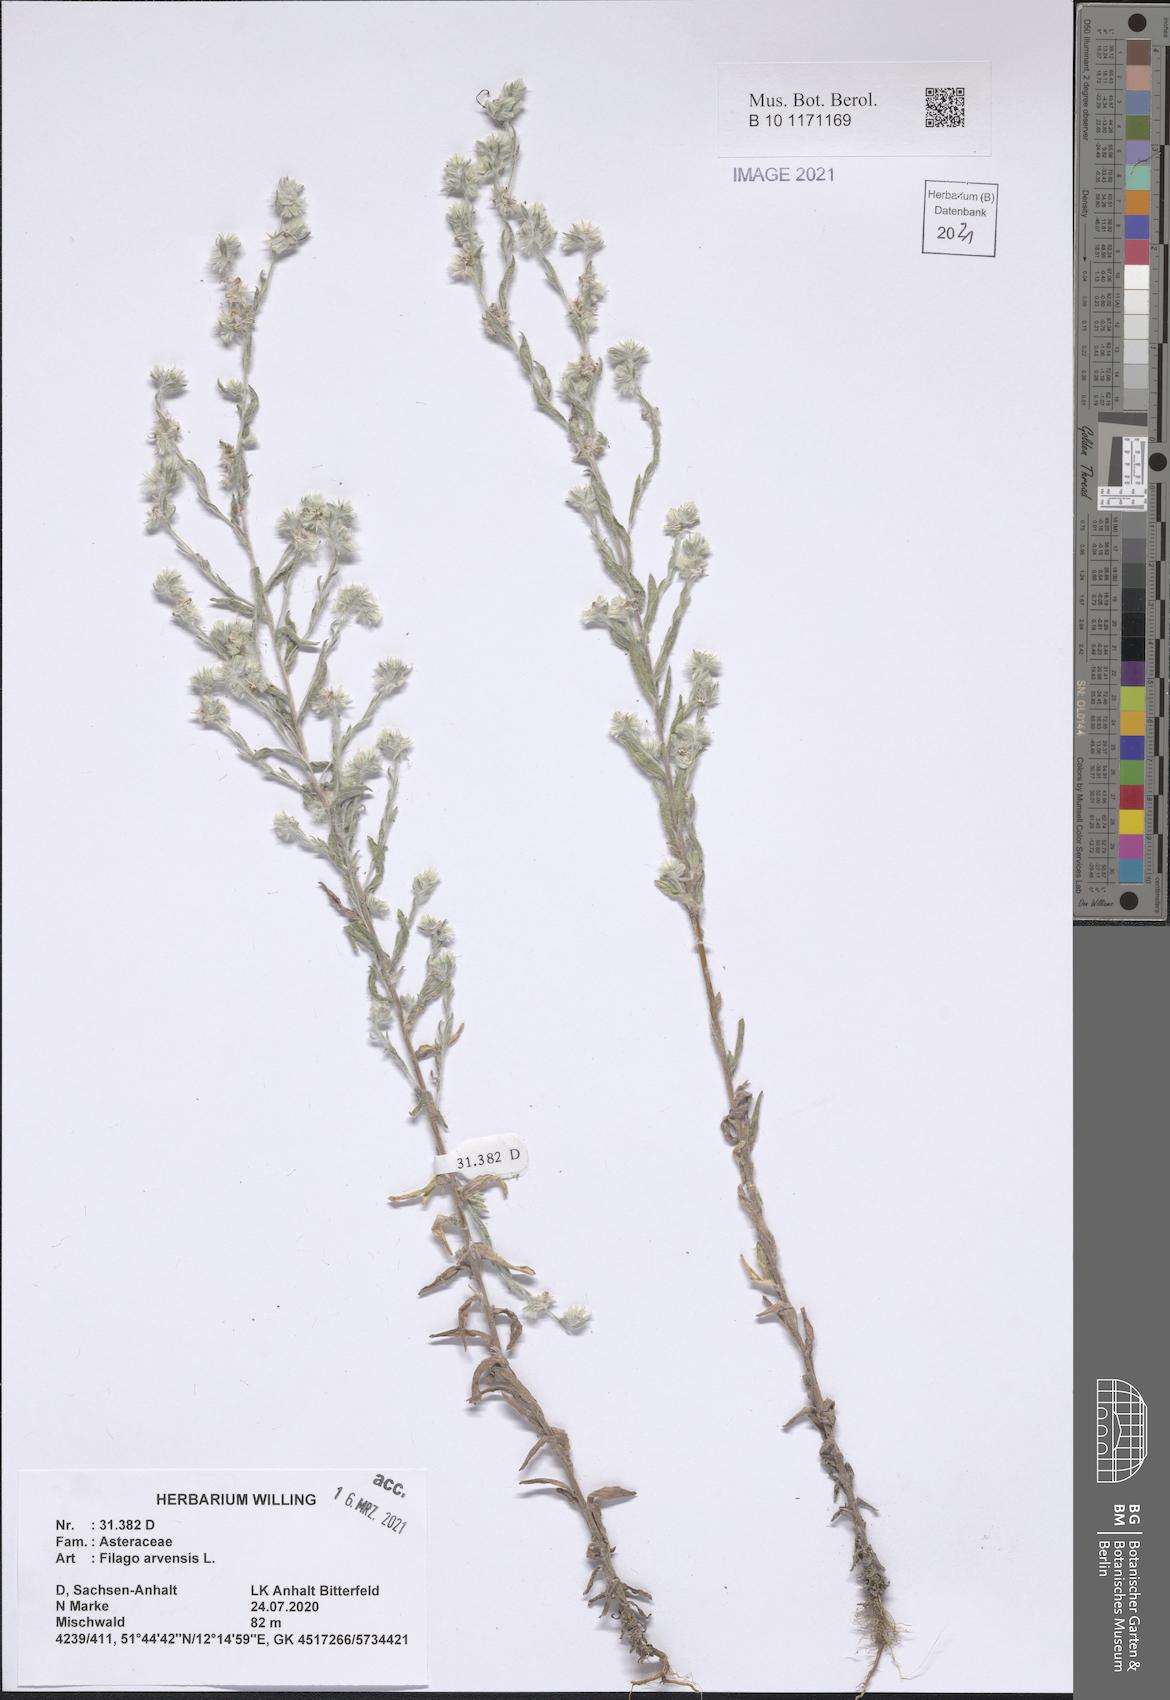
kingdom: Plantae
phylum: Tracheophyta
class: Magnoliopsida
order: Asterales
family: Asteraceae
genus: Filago
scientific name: Filago arvensis
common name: Field cudweed
